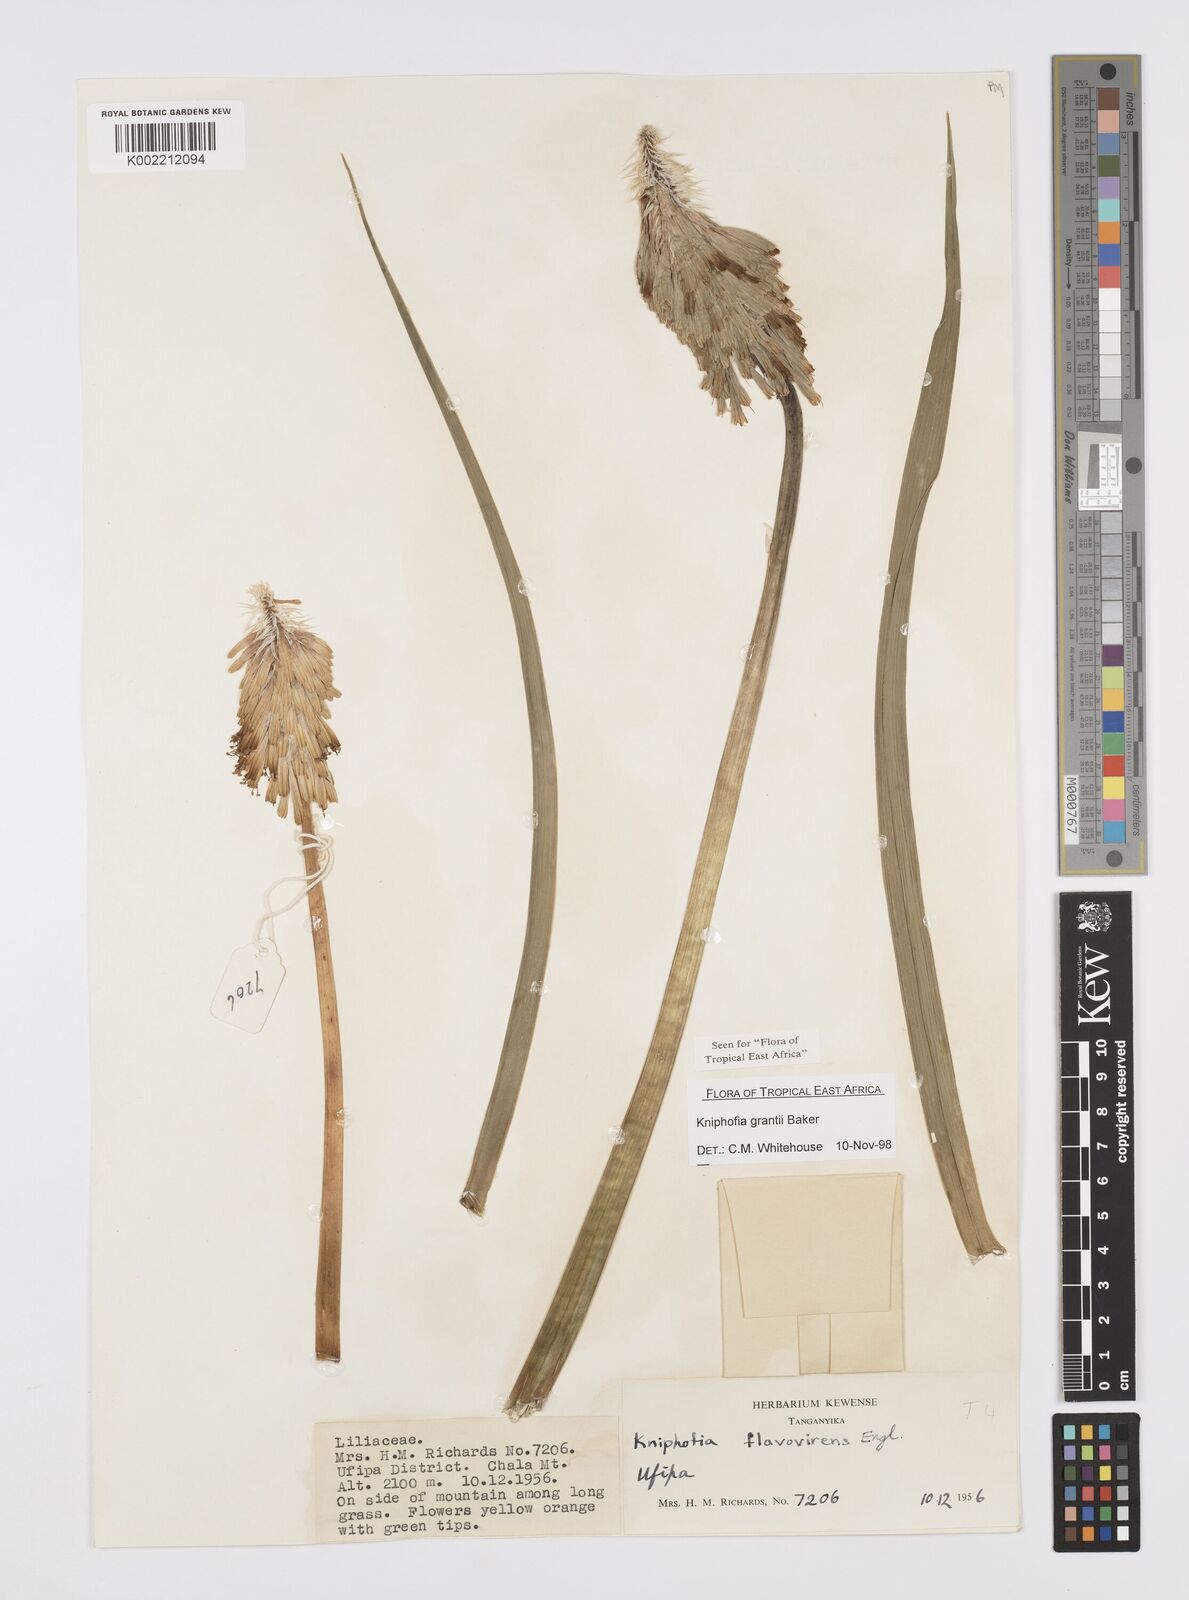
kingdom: Plantae
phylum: Tracheophyta
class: Liliopsida
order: Asparagales
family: Asphodelaceae
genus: Kniphofia
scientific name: Kniphofia grantii
